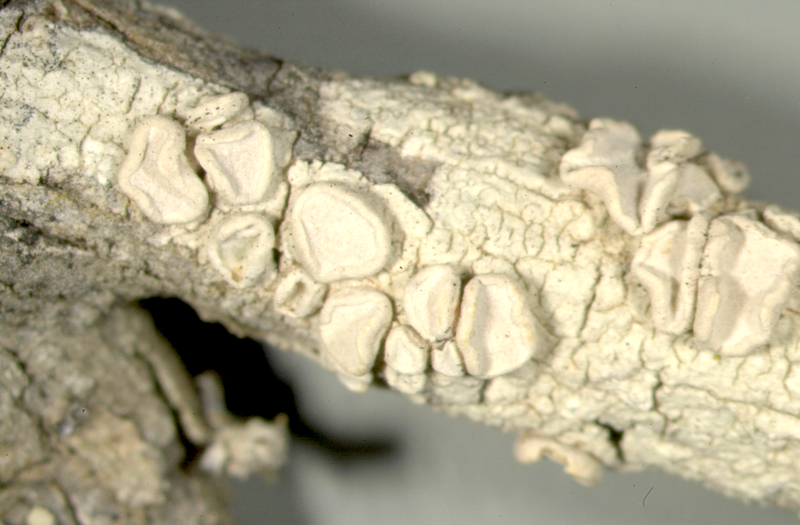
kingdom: Fungi
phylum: Ascomycota
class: Arthoniomycetes
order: Arthoniales
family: Roccellaceae
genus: Schismatomma
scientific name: Schismatomma
